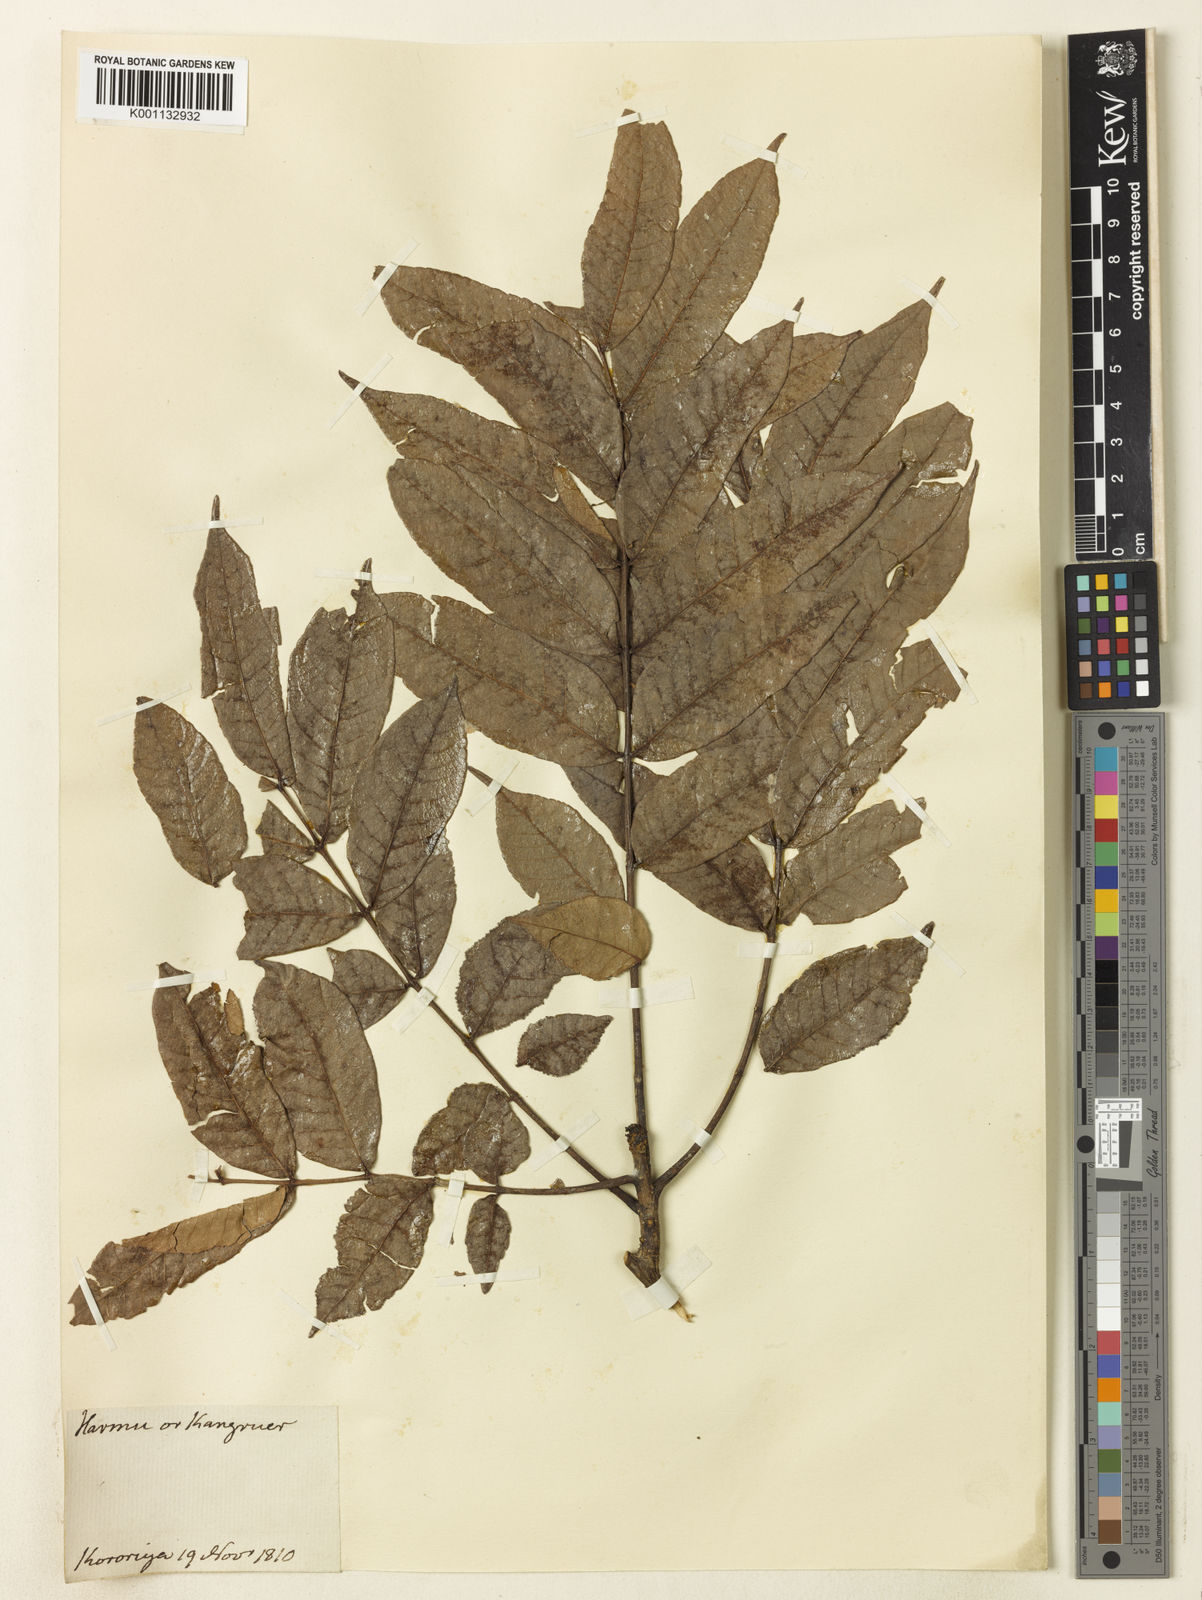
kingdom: Plantae
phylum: Tracheophyta
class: Magnoliopsida
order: Sapindales
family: Burseraceae
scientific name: Burseraceae
